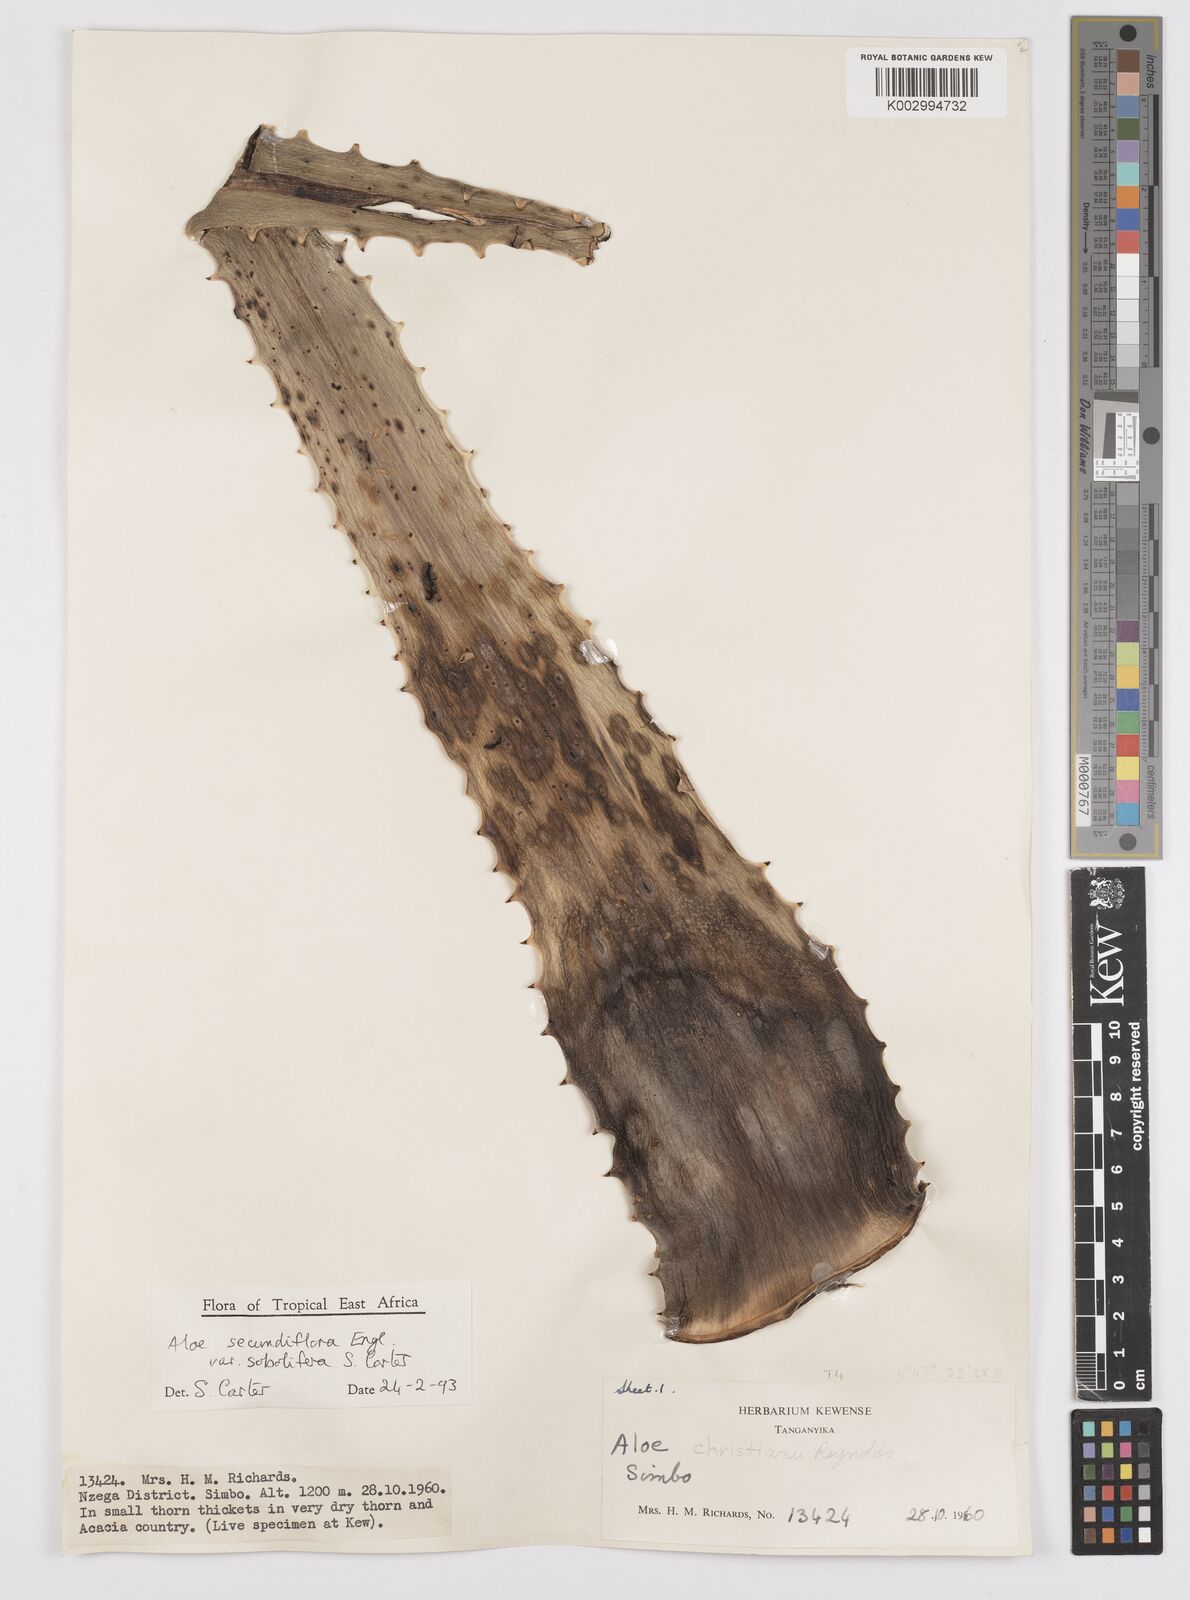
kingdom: Plantae
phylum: Tracheophyta
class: Liliopsida
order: Asparagales
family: Asphodelaceae
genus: Aloe
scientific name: Aloe sobolifera
